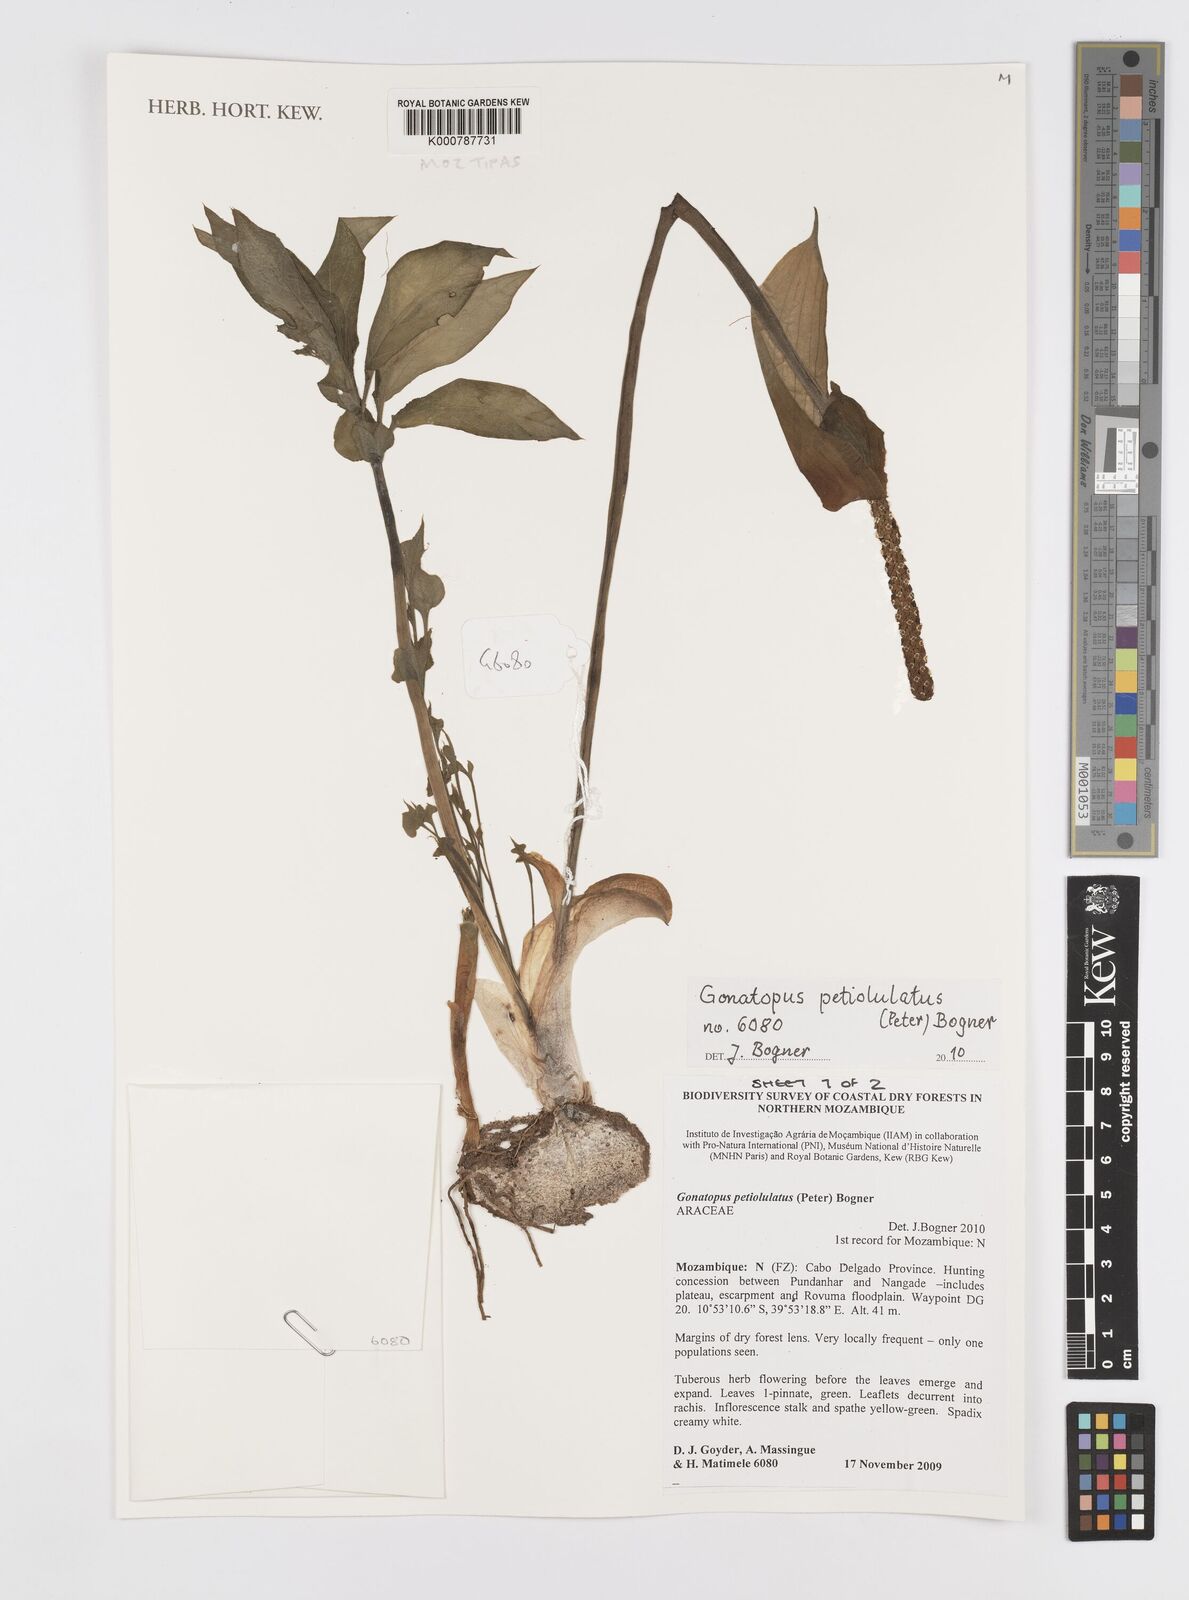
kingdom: Plantae
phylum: Tracheophyta
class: Liliopsida
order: Alismatales
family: Araceae
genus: Gonatopus
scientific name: Gonatopus petiolulatus
